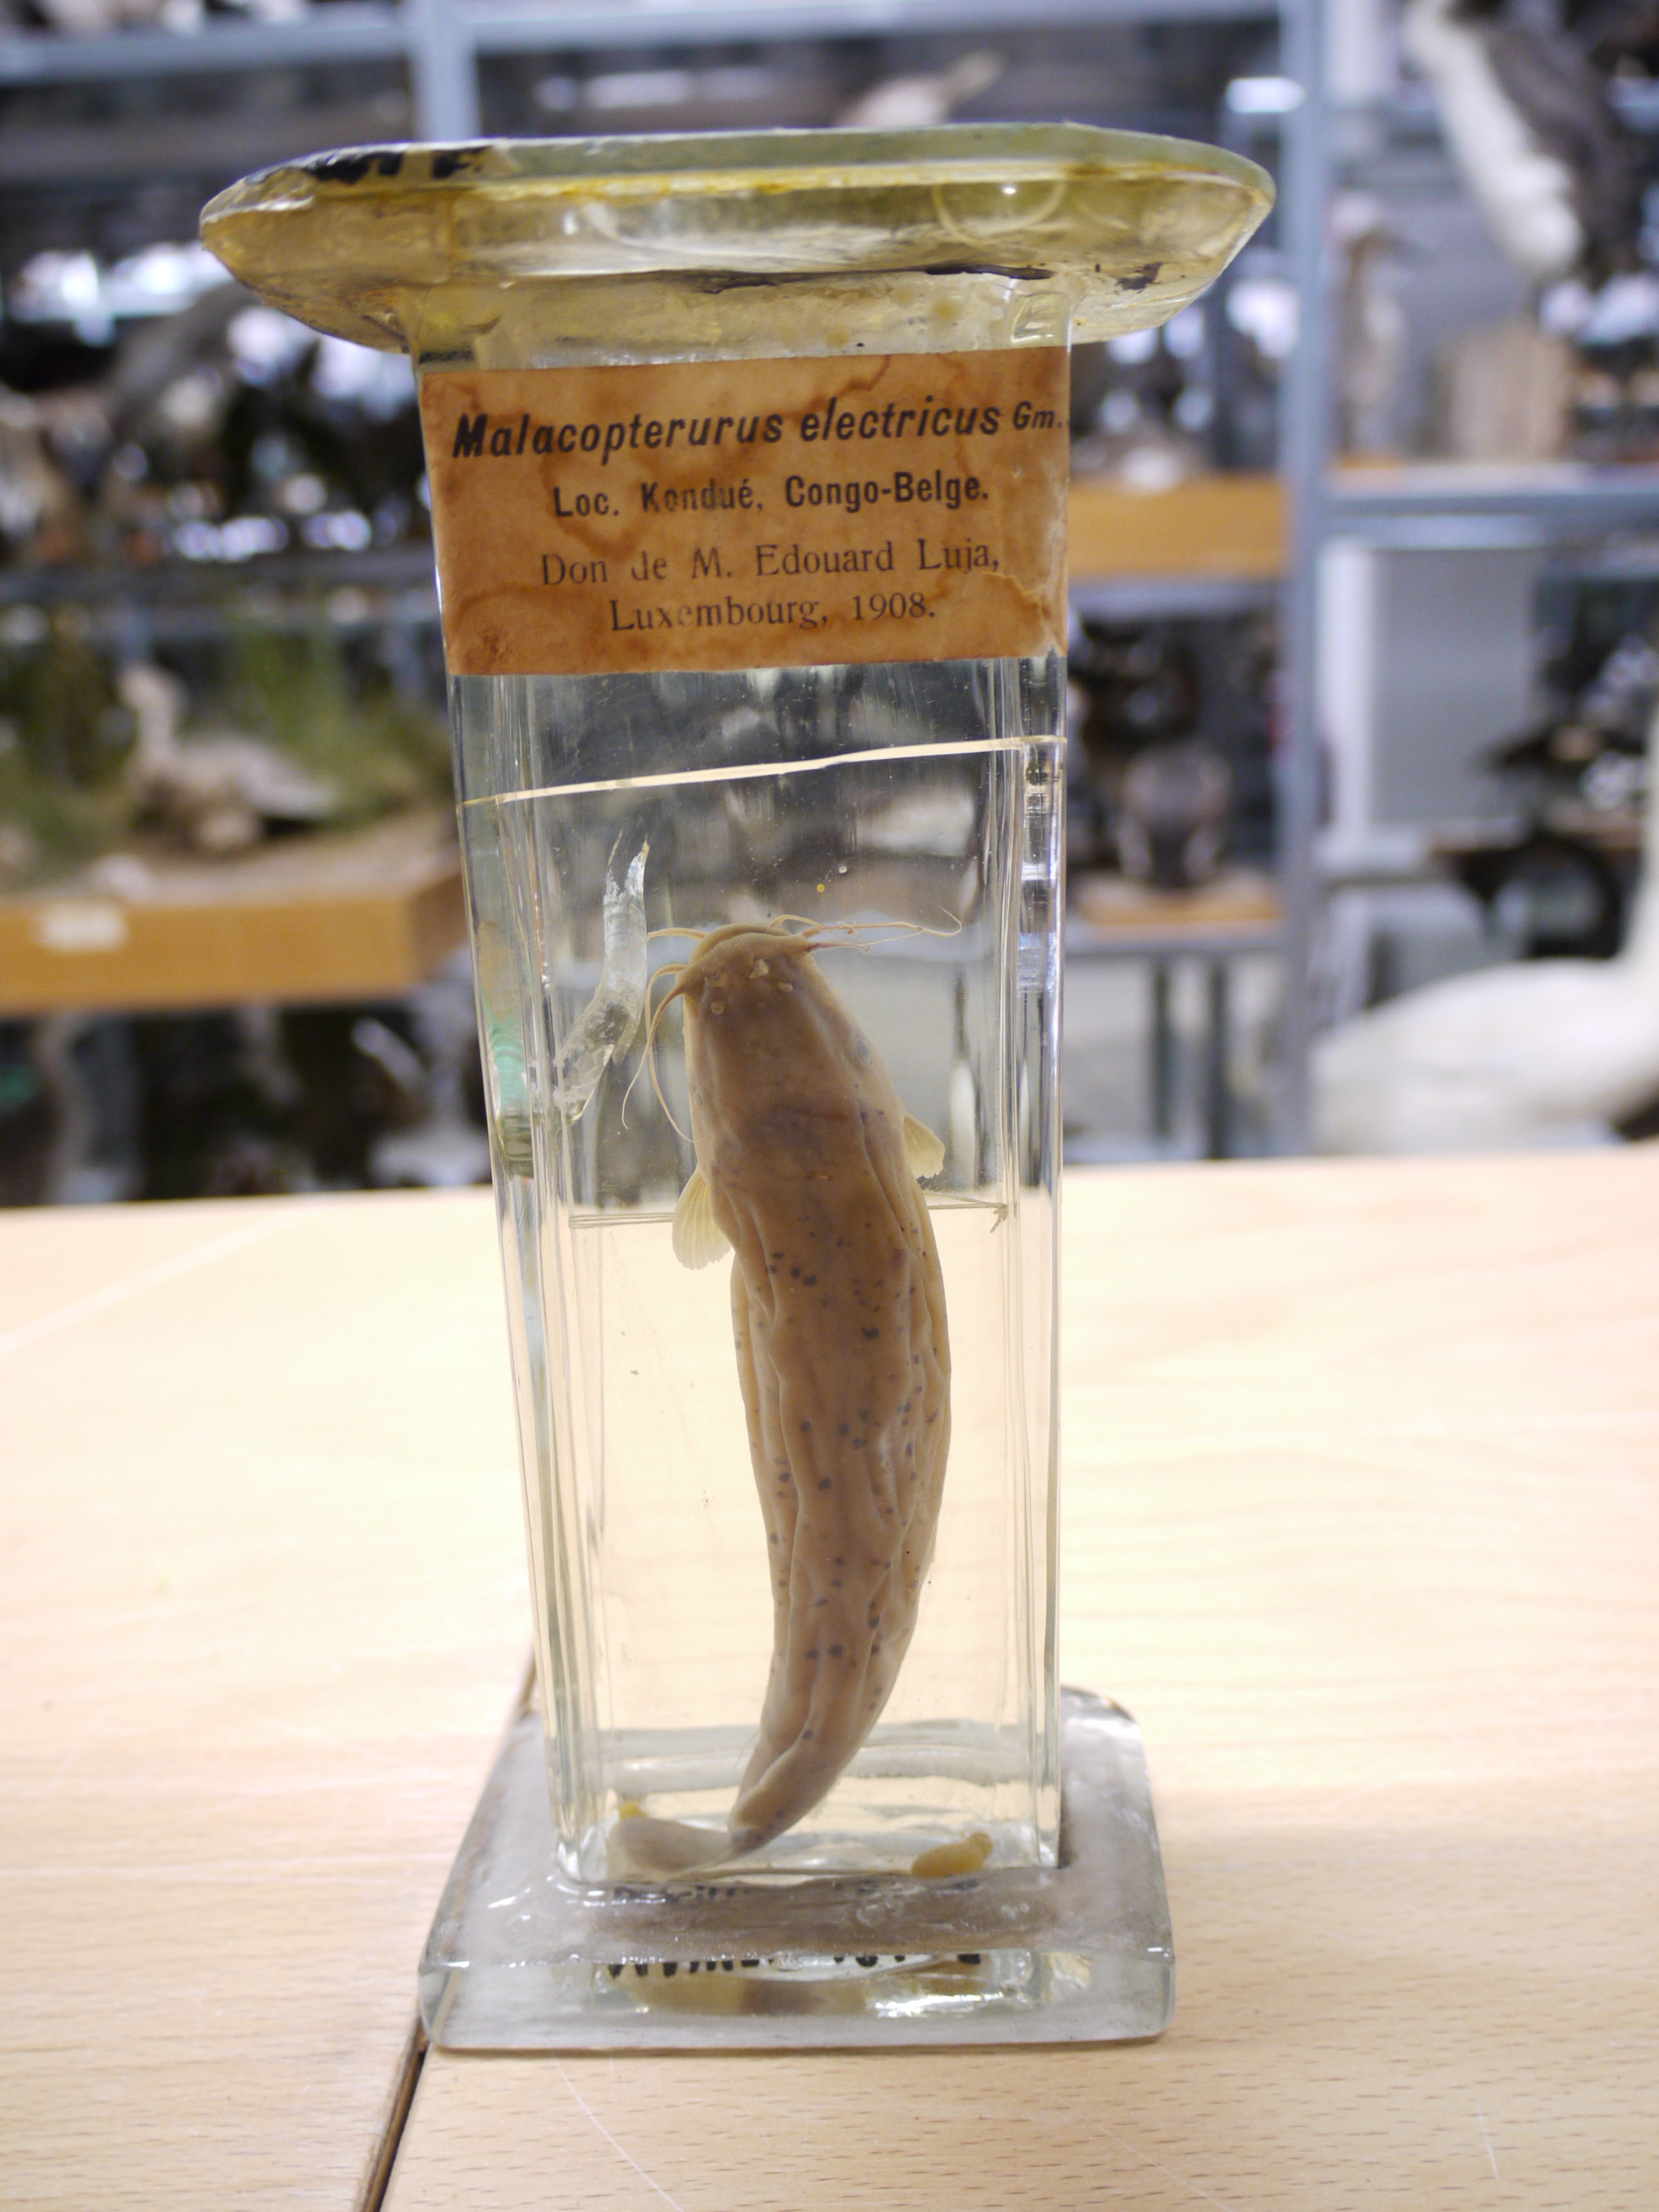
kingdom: Animalia
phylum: Chordata
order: Siluriformes
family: Malapteruridae
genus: Malapterurus
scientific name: Malapterurus electricus
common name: African electric catfish
